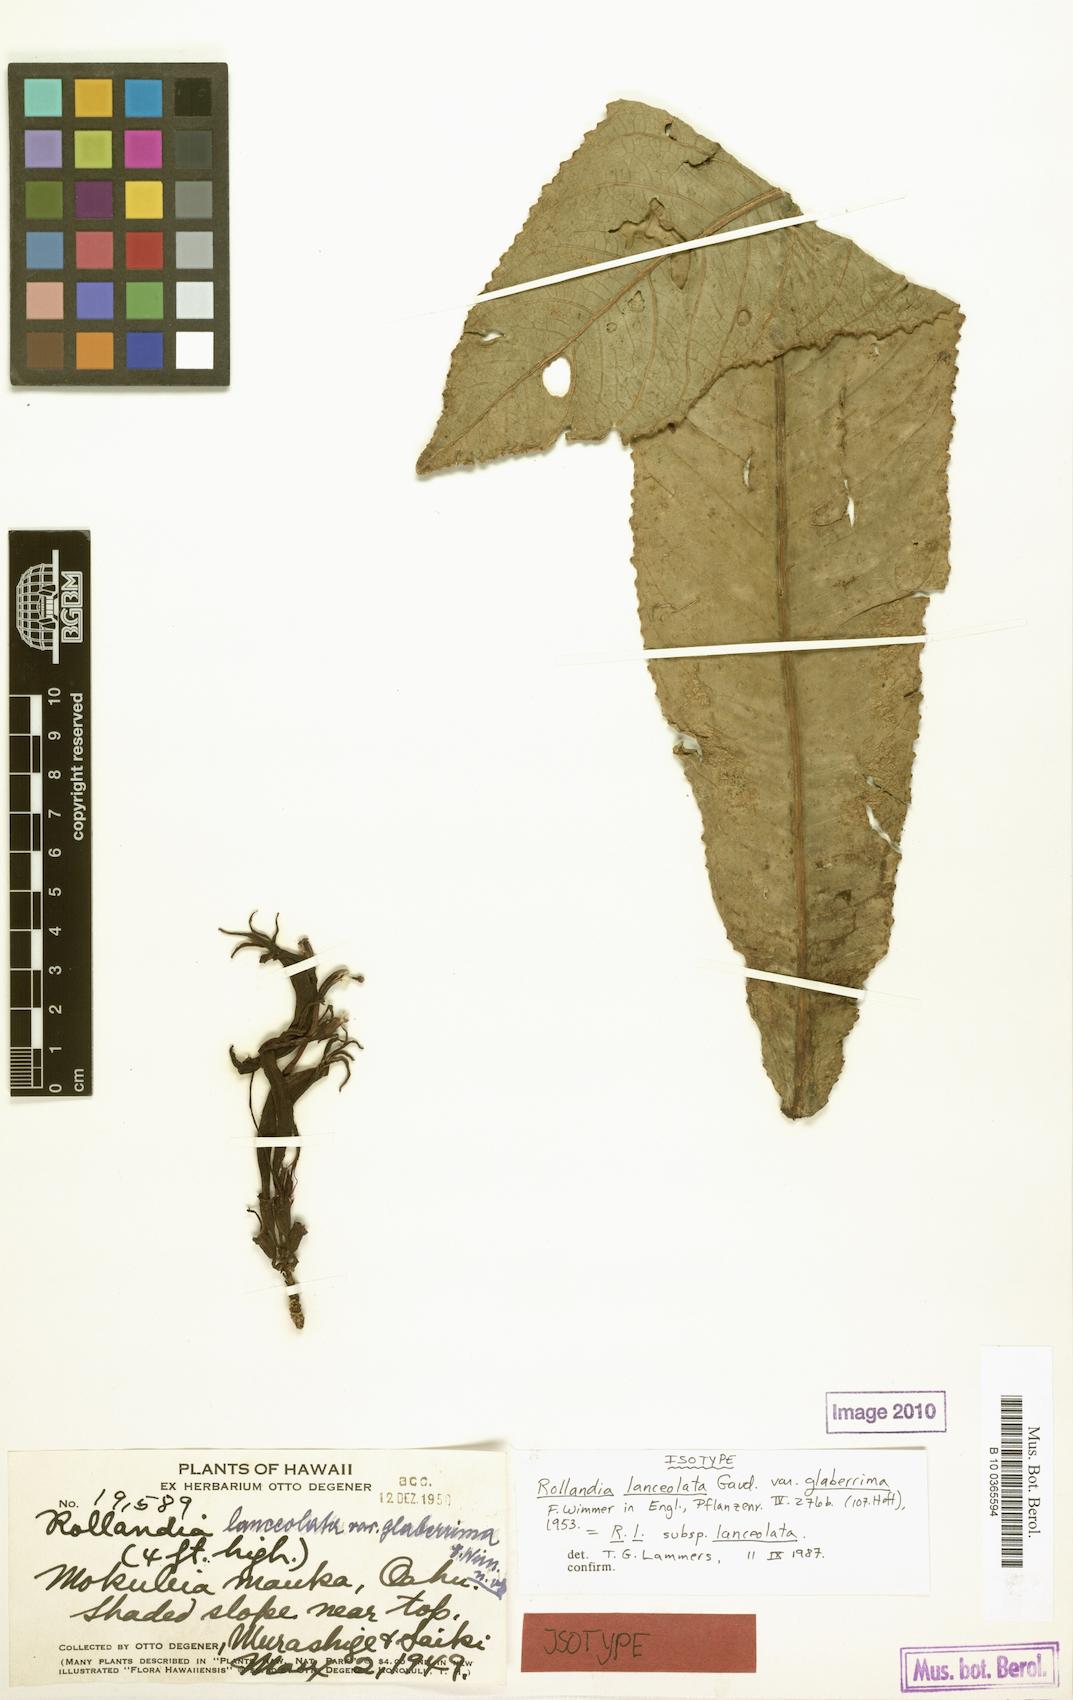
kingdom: Plantae
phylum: Tracheophyta
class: Magnoliopsida
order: Asterales
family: Campanulaceae
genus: Cyanea
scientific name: Cyanea lanceolata
